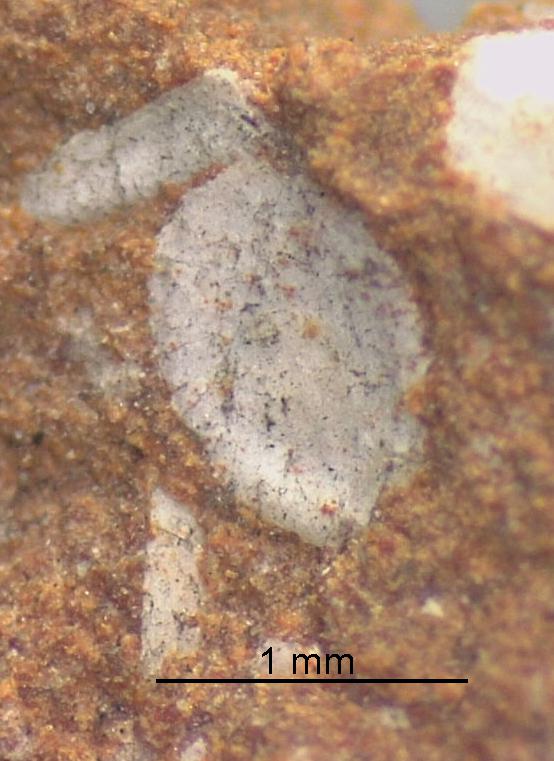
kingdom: Animalia
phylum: Brachiopoda
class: Craniata
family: Craniopsidae
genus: Pseudopholidops
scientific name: Pseudopholidops
